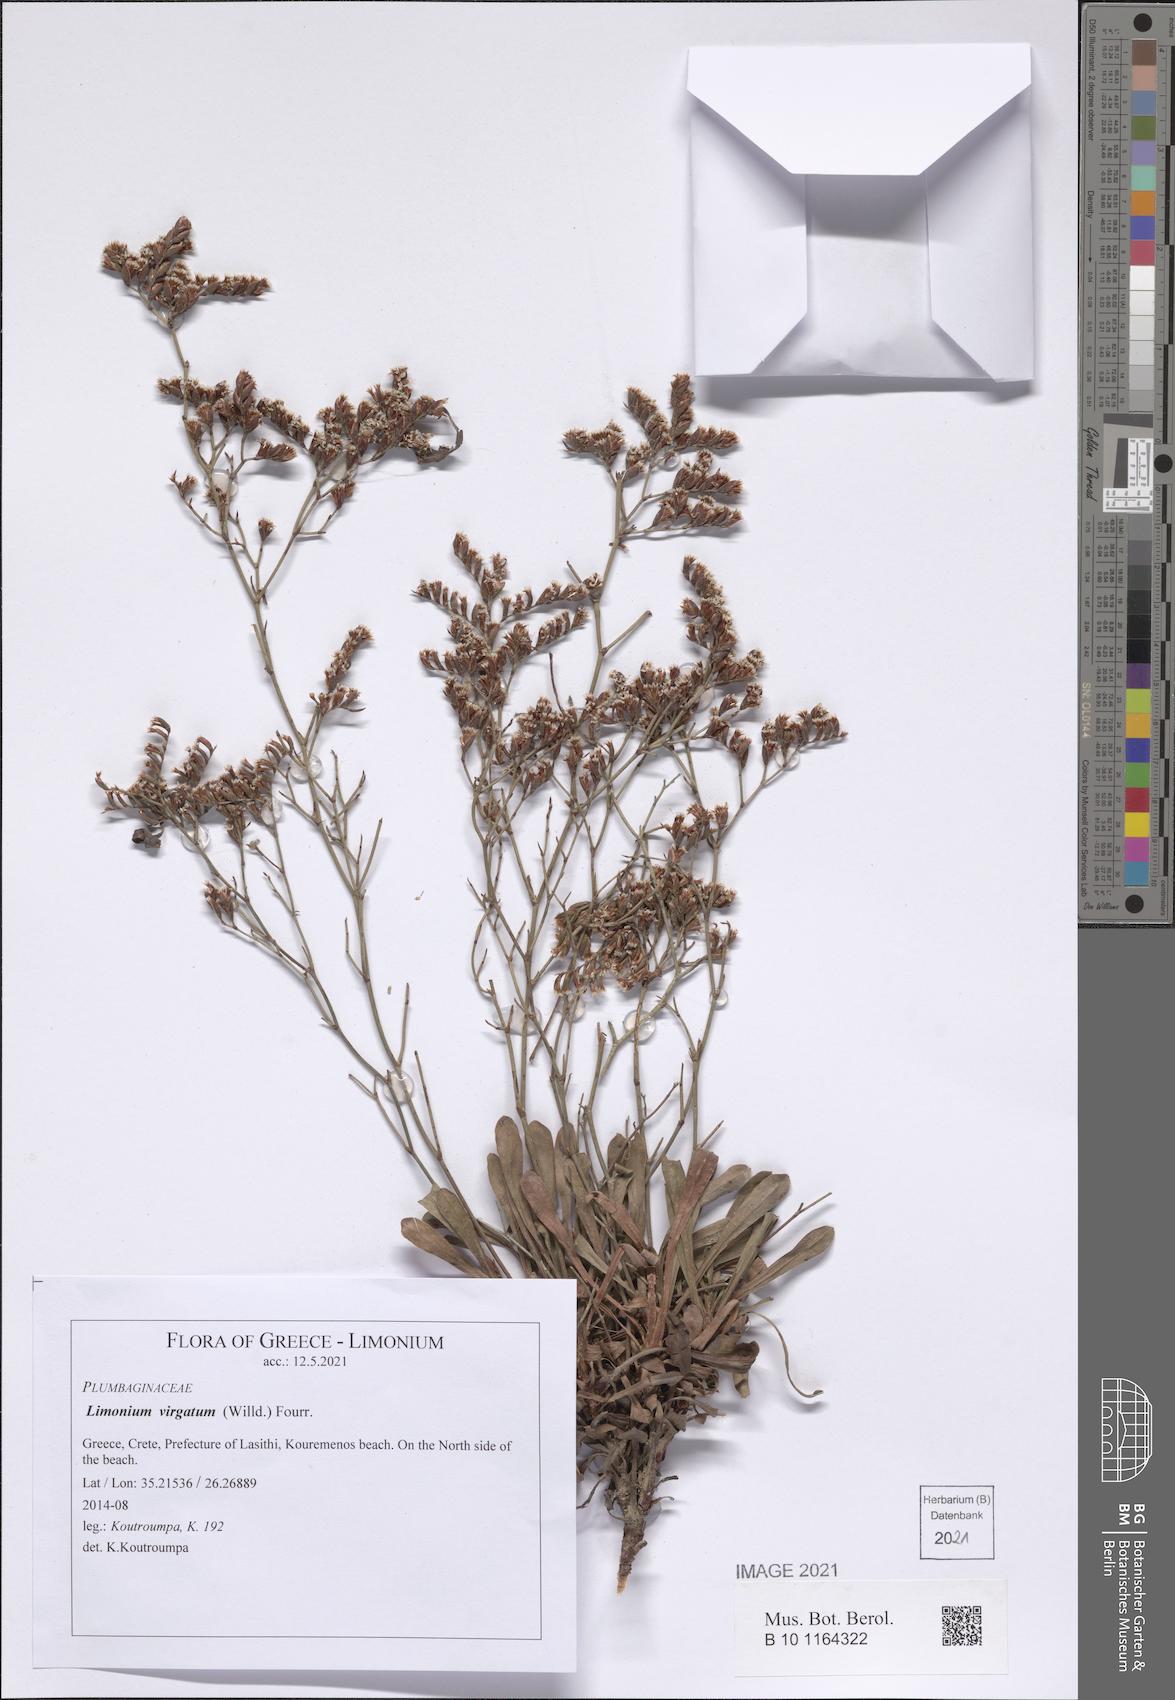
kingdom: Plantae
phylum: Tracheophyta
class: Magnoliopsida
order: Caryophyllales
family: Plumbaginaceae
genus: Limonium
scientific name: Limonium virgatum
